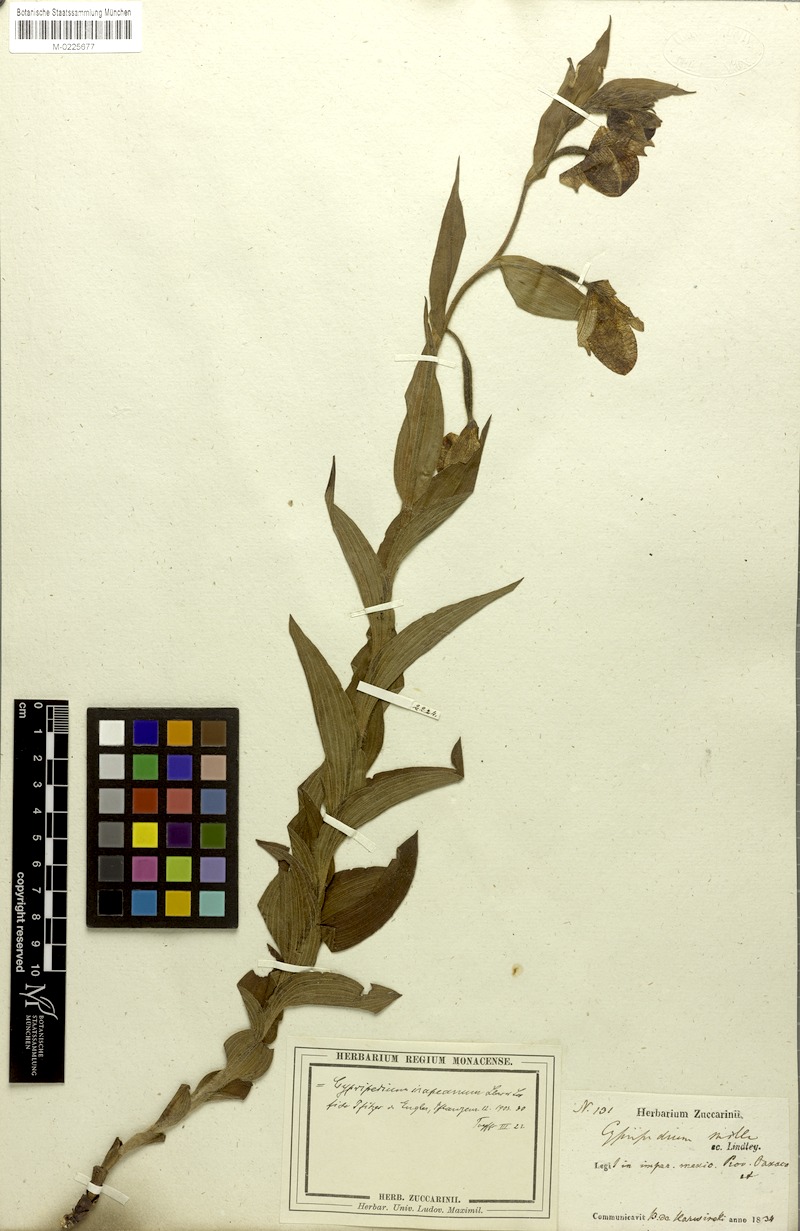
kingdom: Plantae
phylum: Tracheophyta
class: Liliopsida
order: Asparagales
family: Orchidaceae
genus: Cypripedium
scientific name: Cypripedium irapeanum
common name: Irapeao cypripedium
